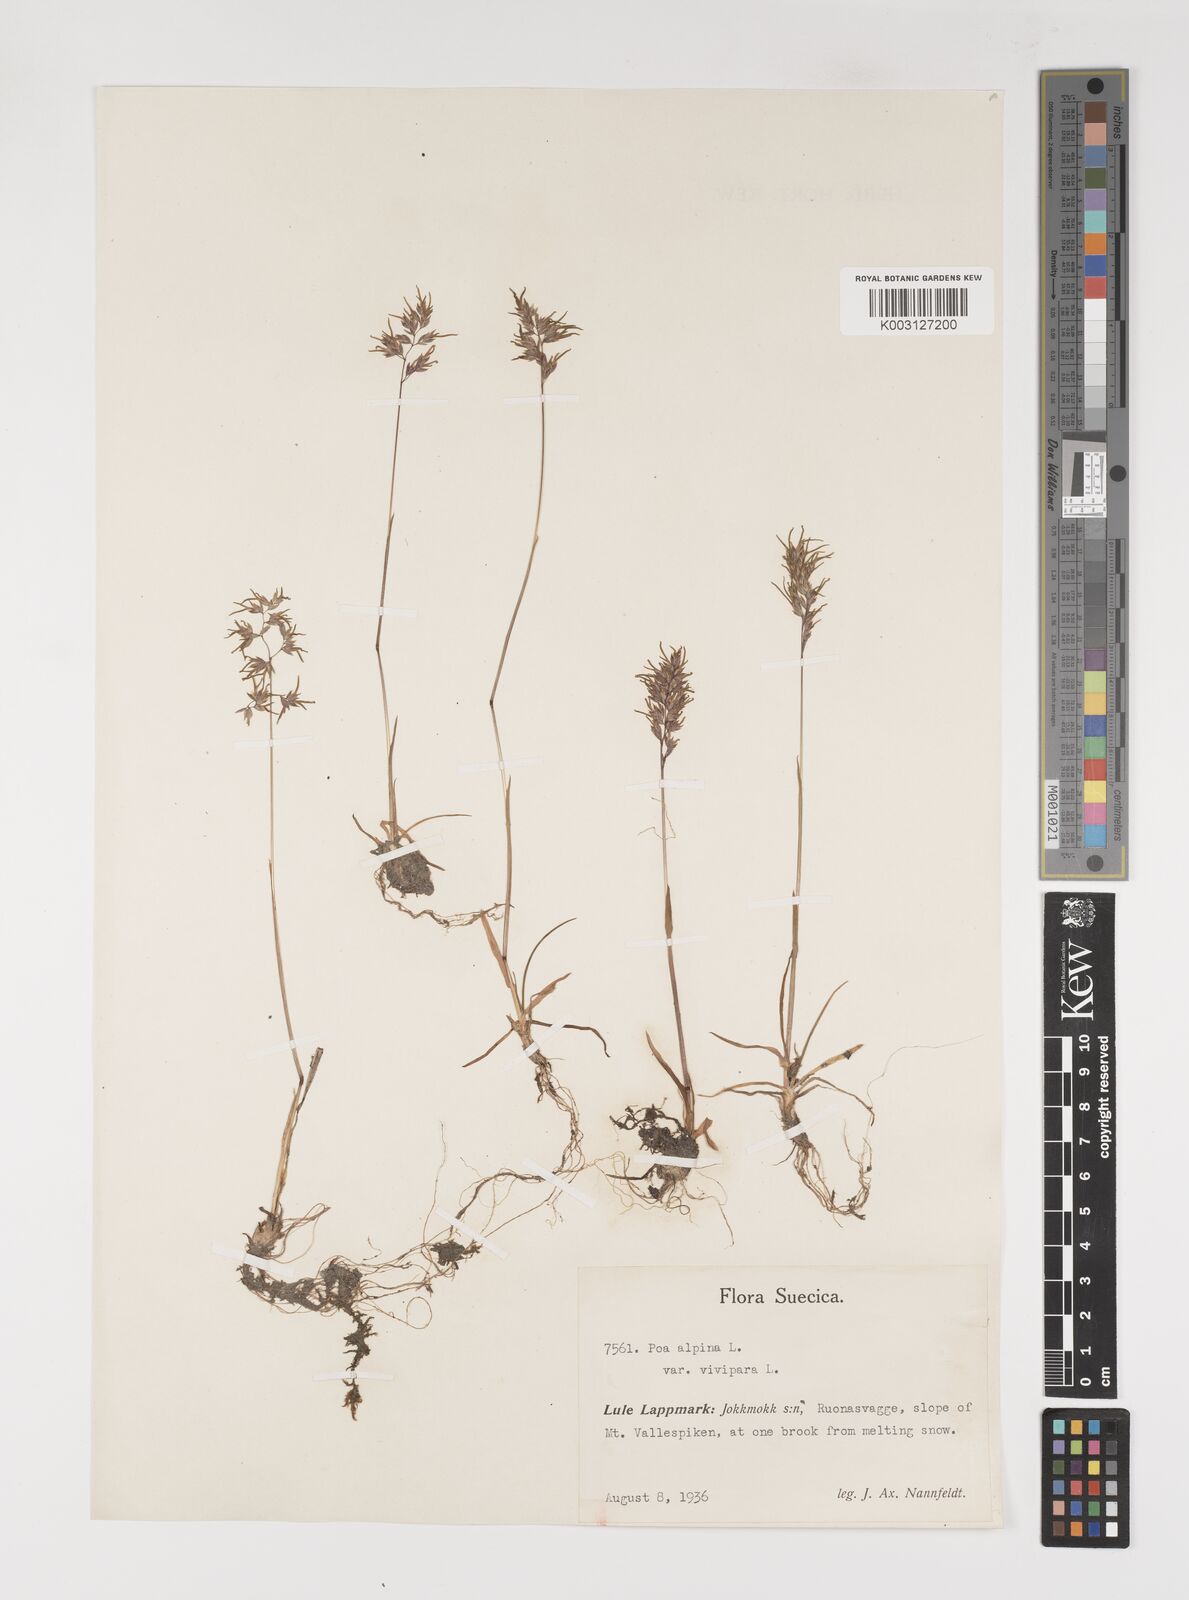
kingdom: Plantae
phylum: Tracheophyta
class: Liliopsida
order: Poales
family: Poaceae
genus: Poa
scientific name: Poa alpina
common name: Alpine bluegrass
